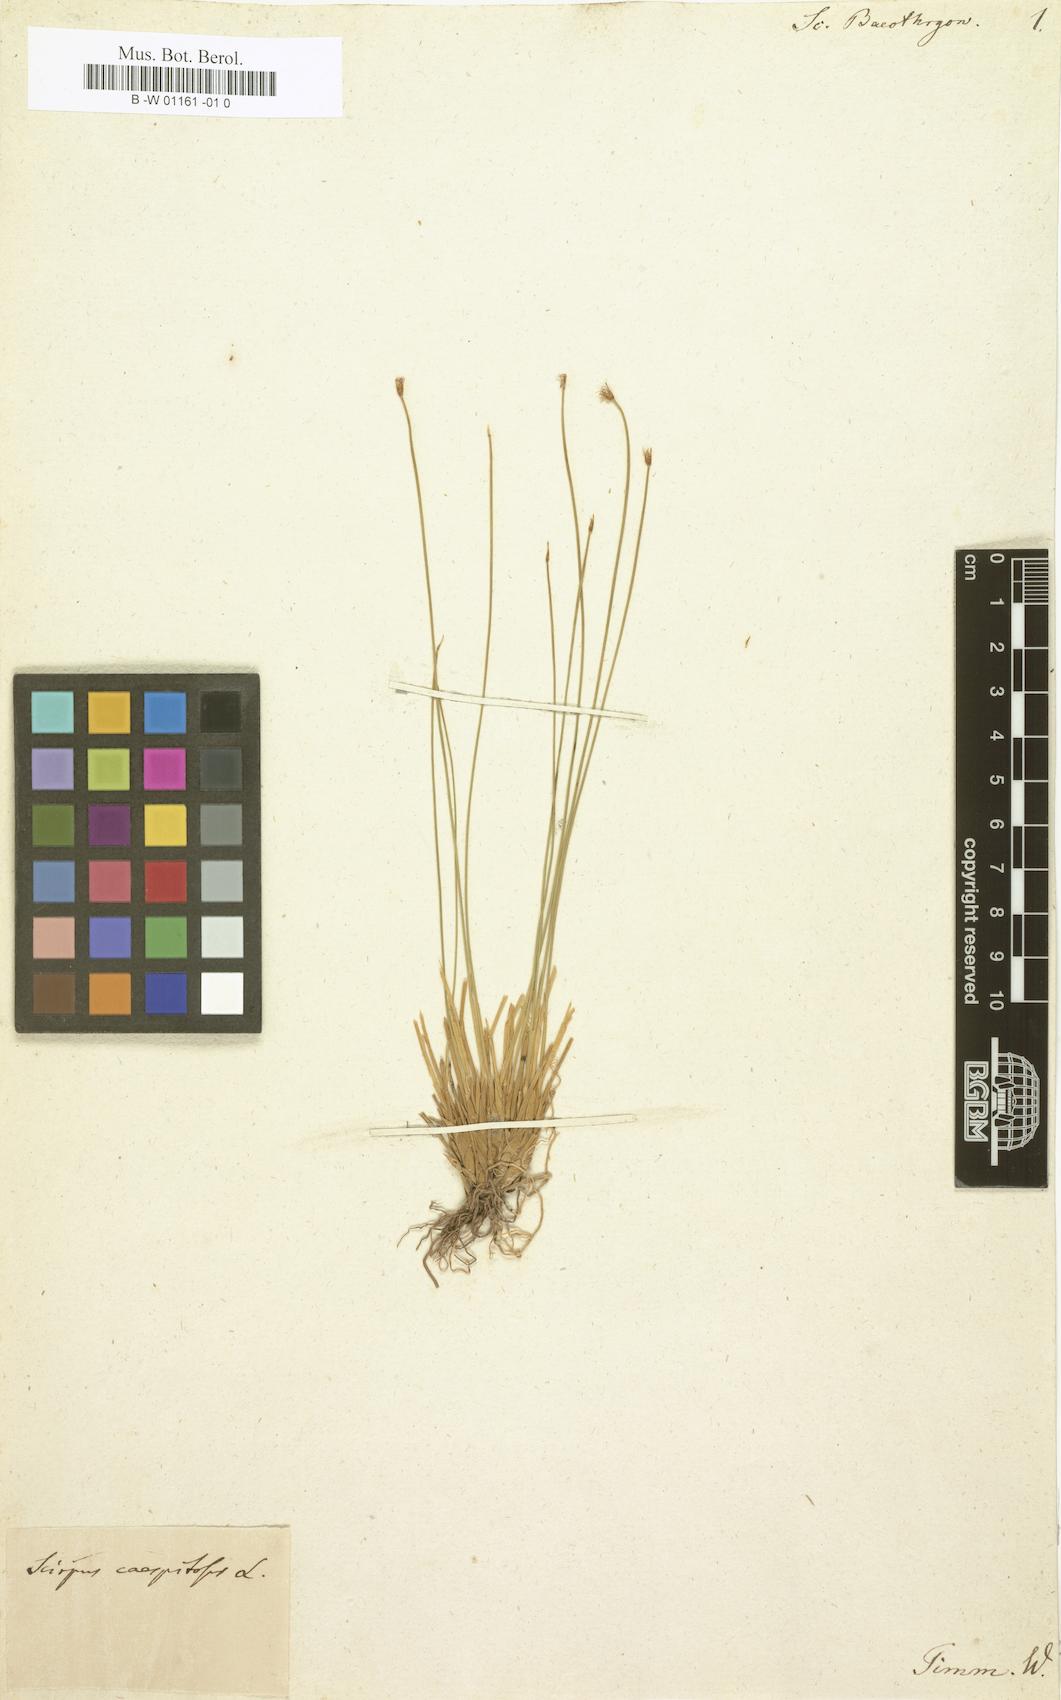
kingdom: Plantae
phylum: Tracheophyta
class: Liliopsida
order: Poales
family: Cyperaceae
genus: Eleocharis
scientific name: Eleocharis quinqueflora
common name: Few-flowered spike-rush
